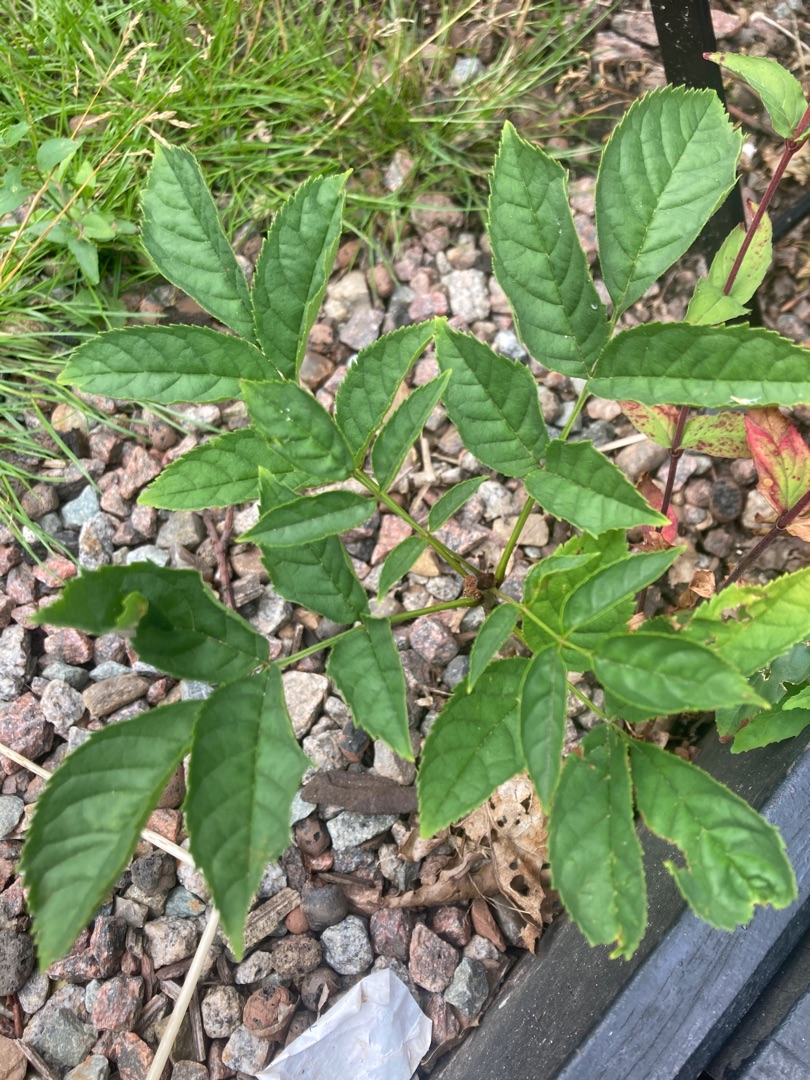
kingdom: Plantae
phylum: Tracheophyta
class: Magnoliopsida
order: Lamiales
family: Oleaceae
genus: Fraxinus
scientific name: Fraxinus excelsior
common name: Ask
